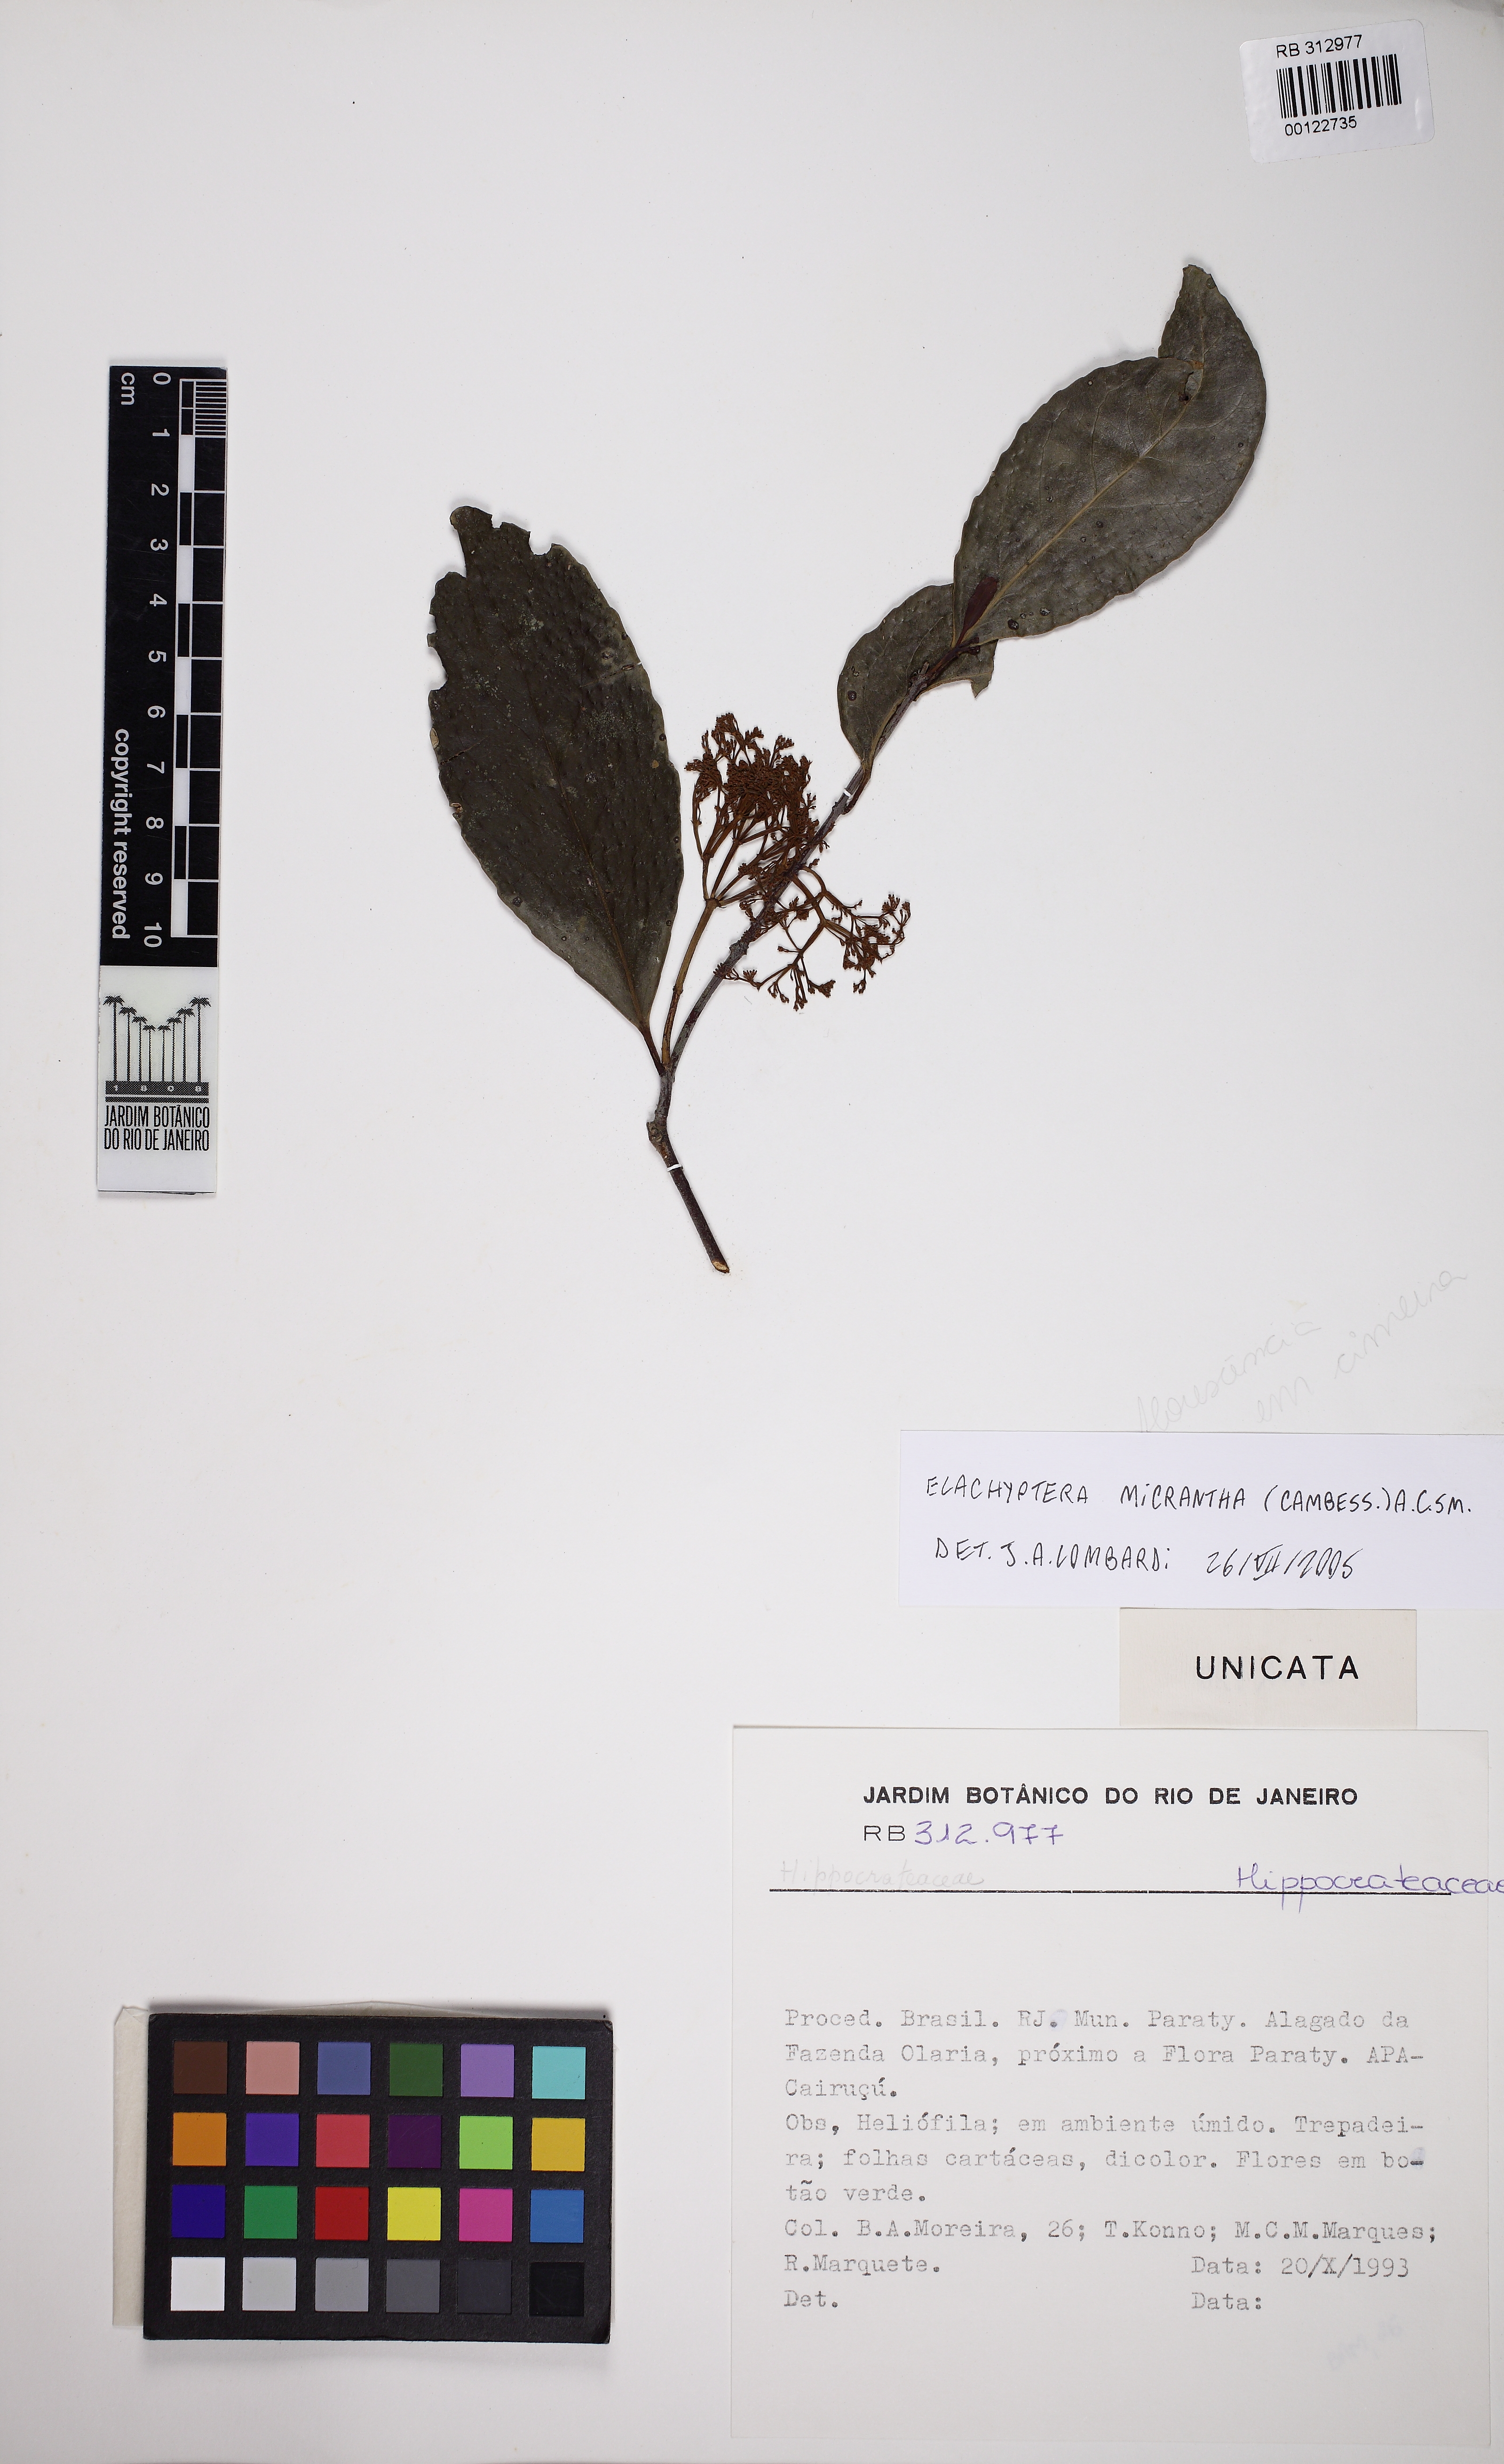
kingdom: Plantae
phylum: Tracheophyta
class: Magnoliopsida
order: Celastrales
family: Celastraceae
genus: Elachyptera
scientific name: Elachyptera micrantha
